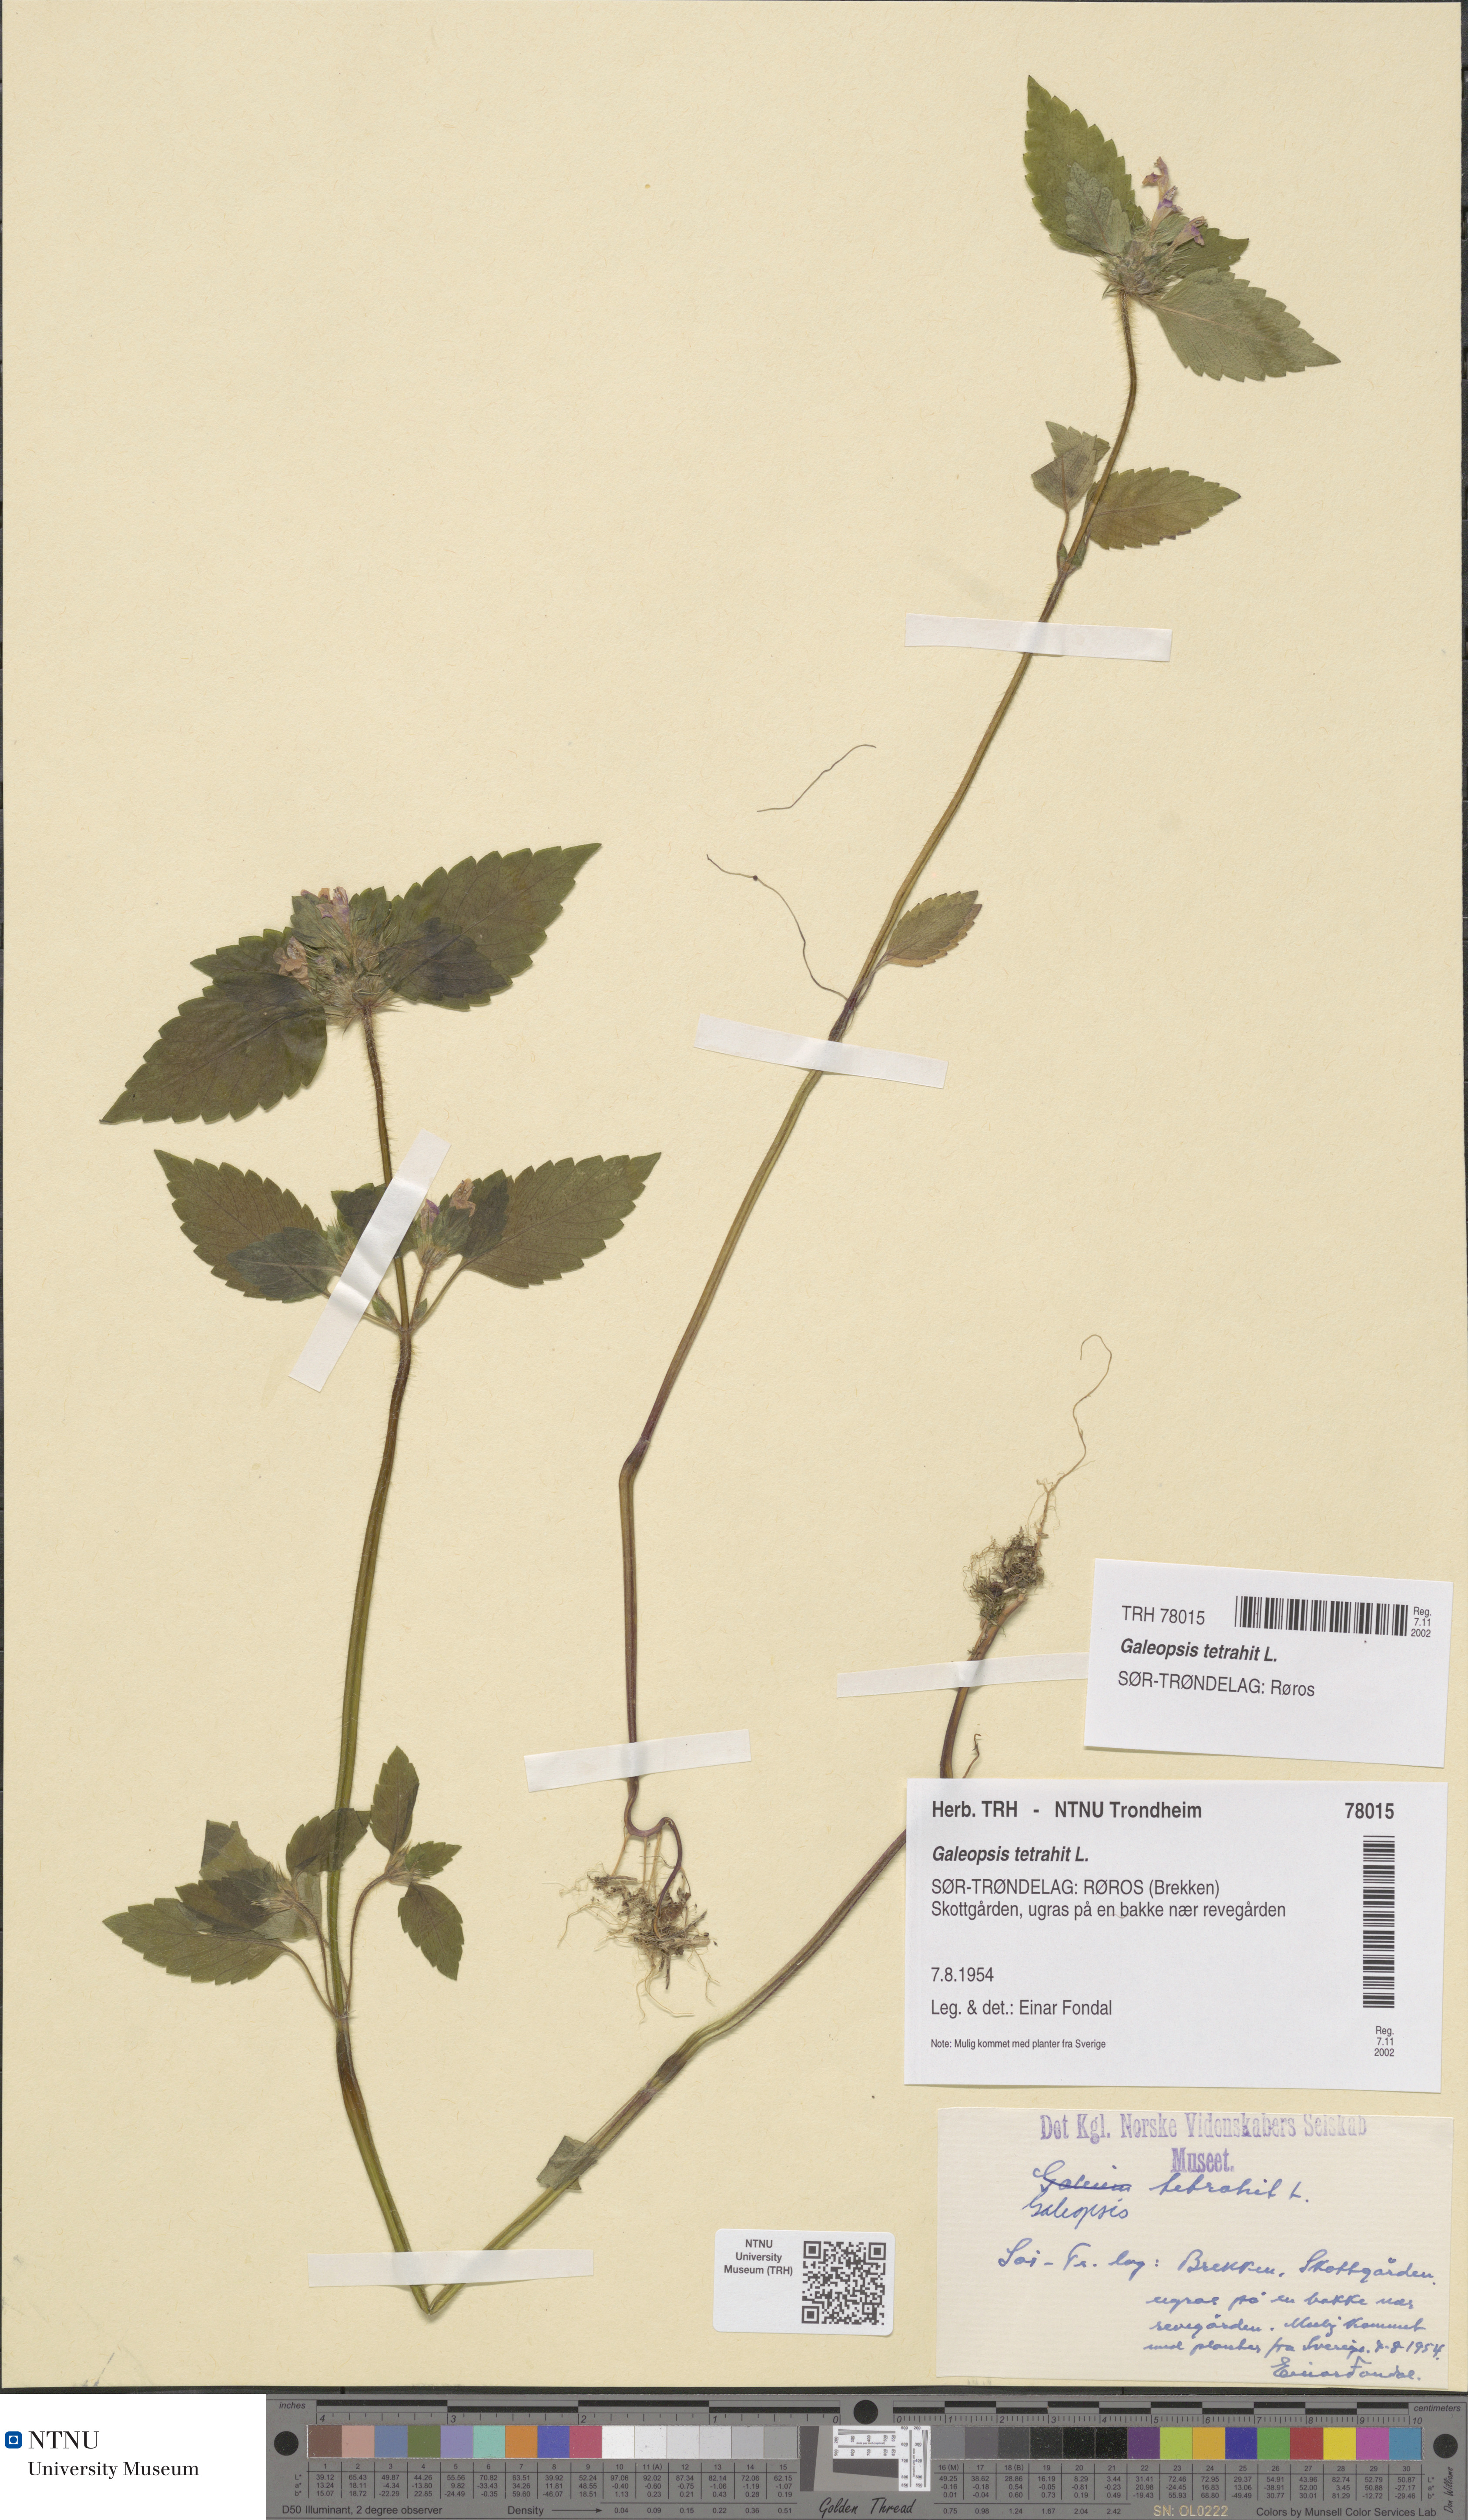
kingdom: Plantae
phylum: Tracheophyta
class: Magnoliopsida
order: Lamiales
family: Lamiaceae
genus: Galeopsis
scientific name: Galeopsis tetrahit
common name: Common hemp-nettle
